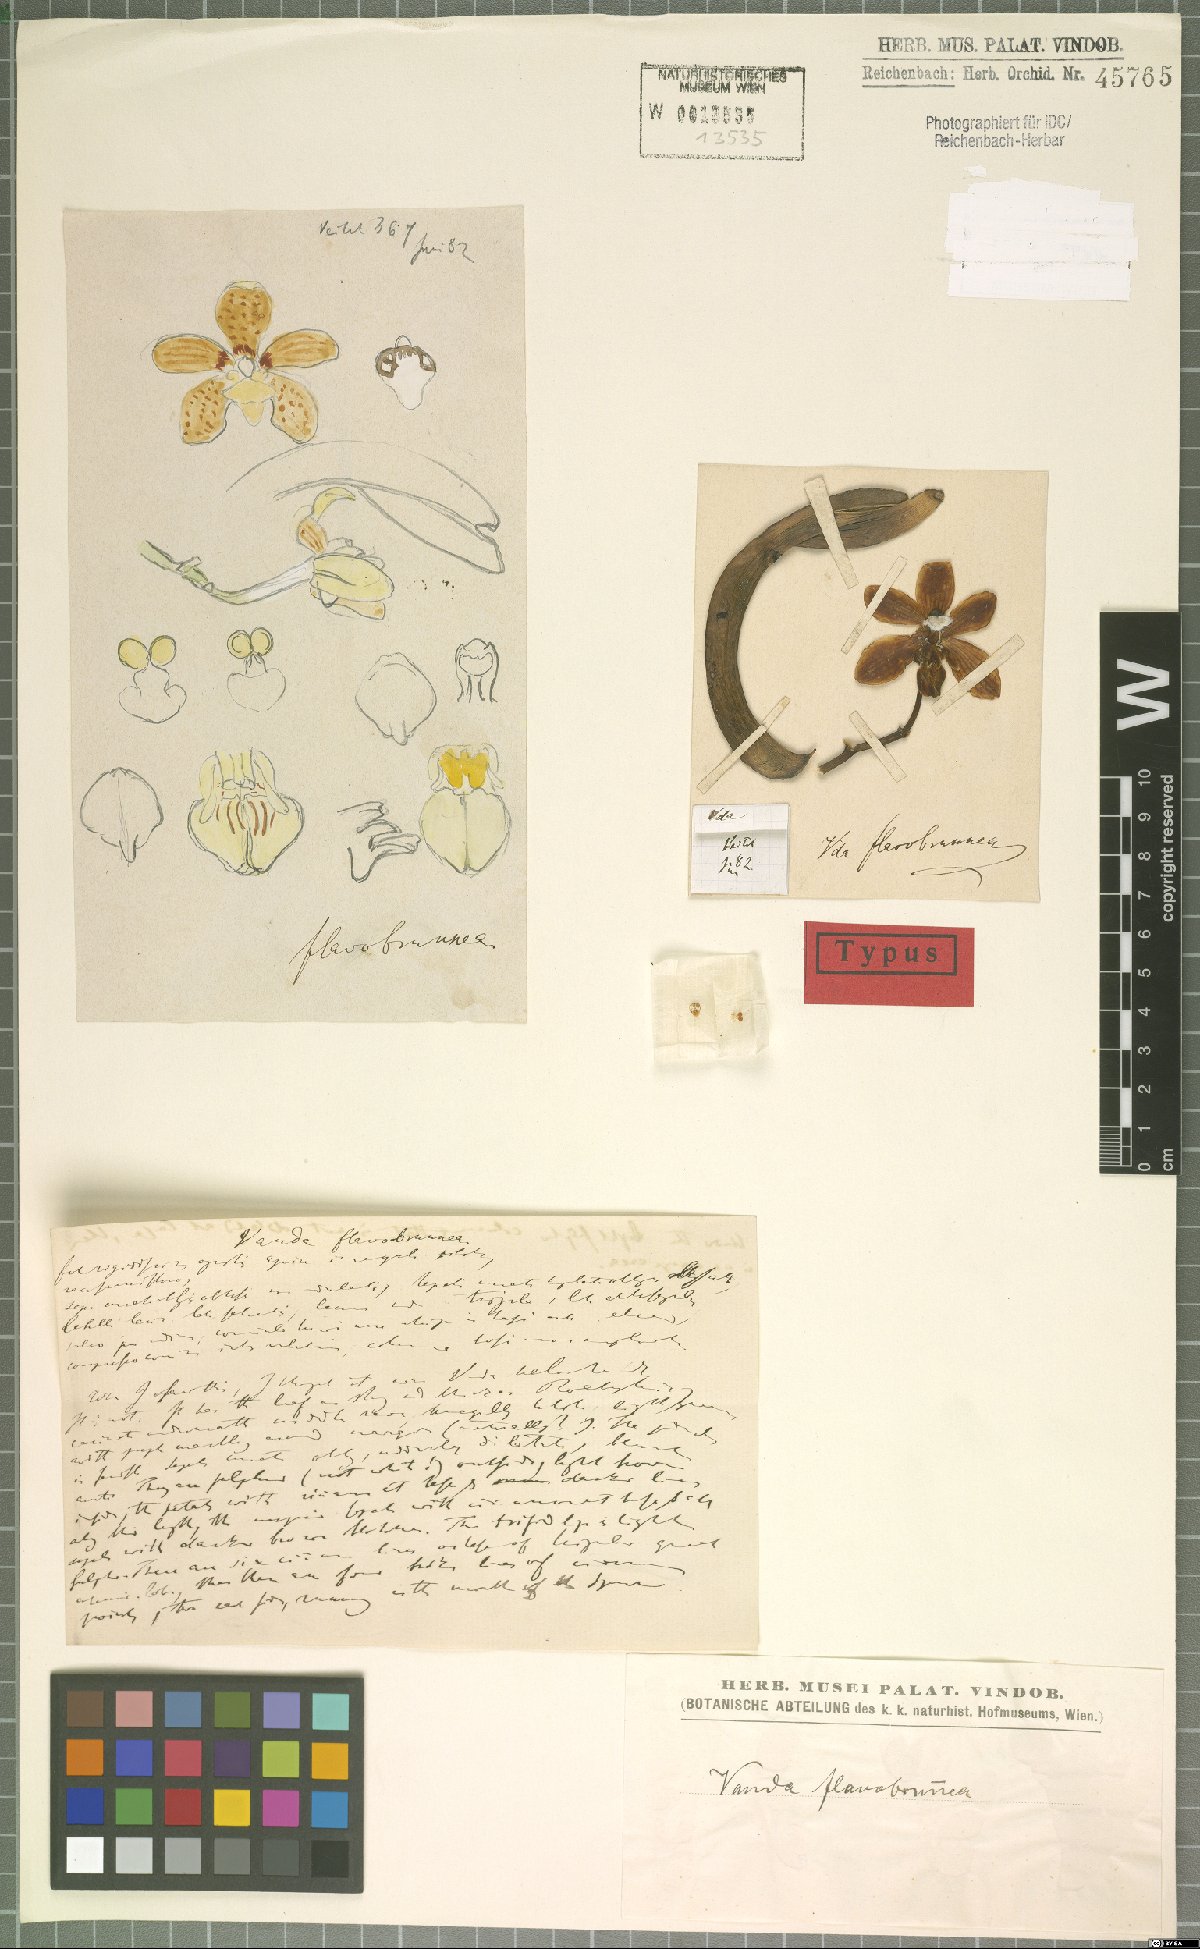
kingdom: Plantae
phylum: Tracheophyta
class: Liliopsida
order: Asparagales
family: Orchidaceae
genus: Vanda
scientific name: Vanda flavobrunnea
